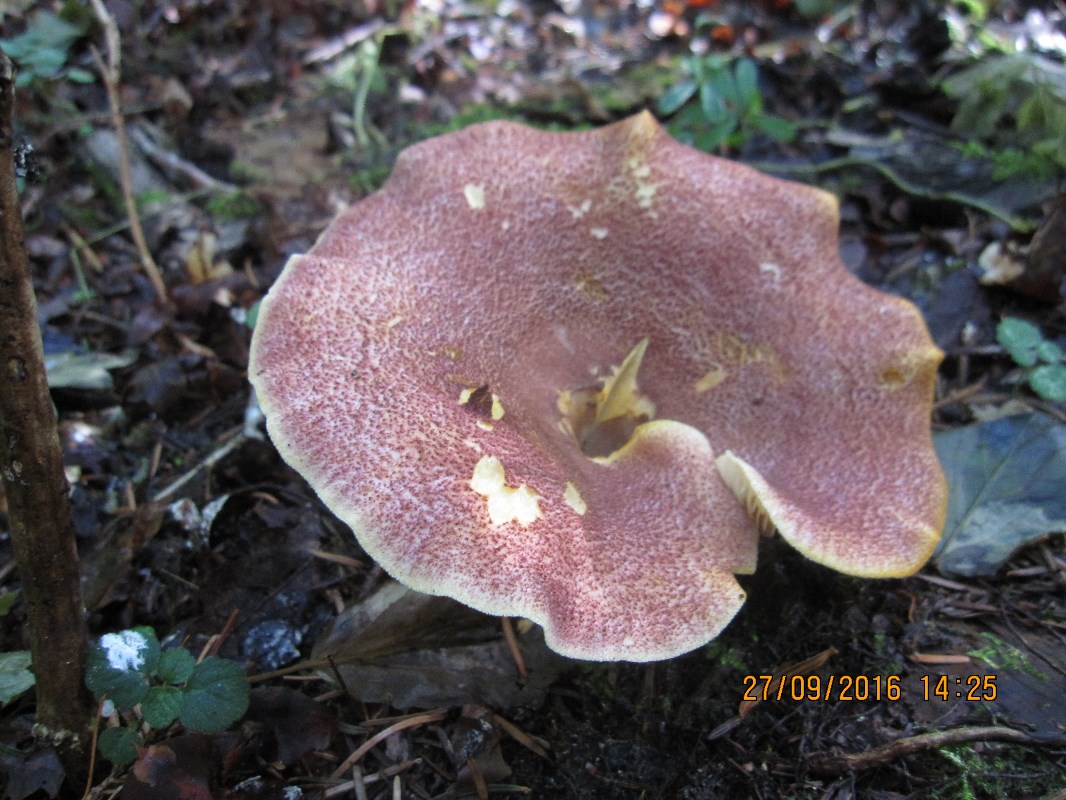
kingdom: Fungi
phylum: Basidiomycota
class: Agaricomycetes
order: Agaricales
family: Tricholomataceae
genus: Tricholomopsis
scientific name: Tricholomopsis rutilans
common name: purpur-væbnerhat
